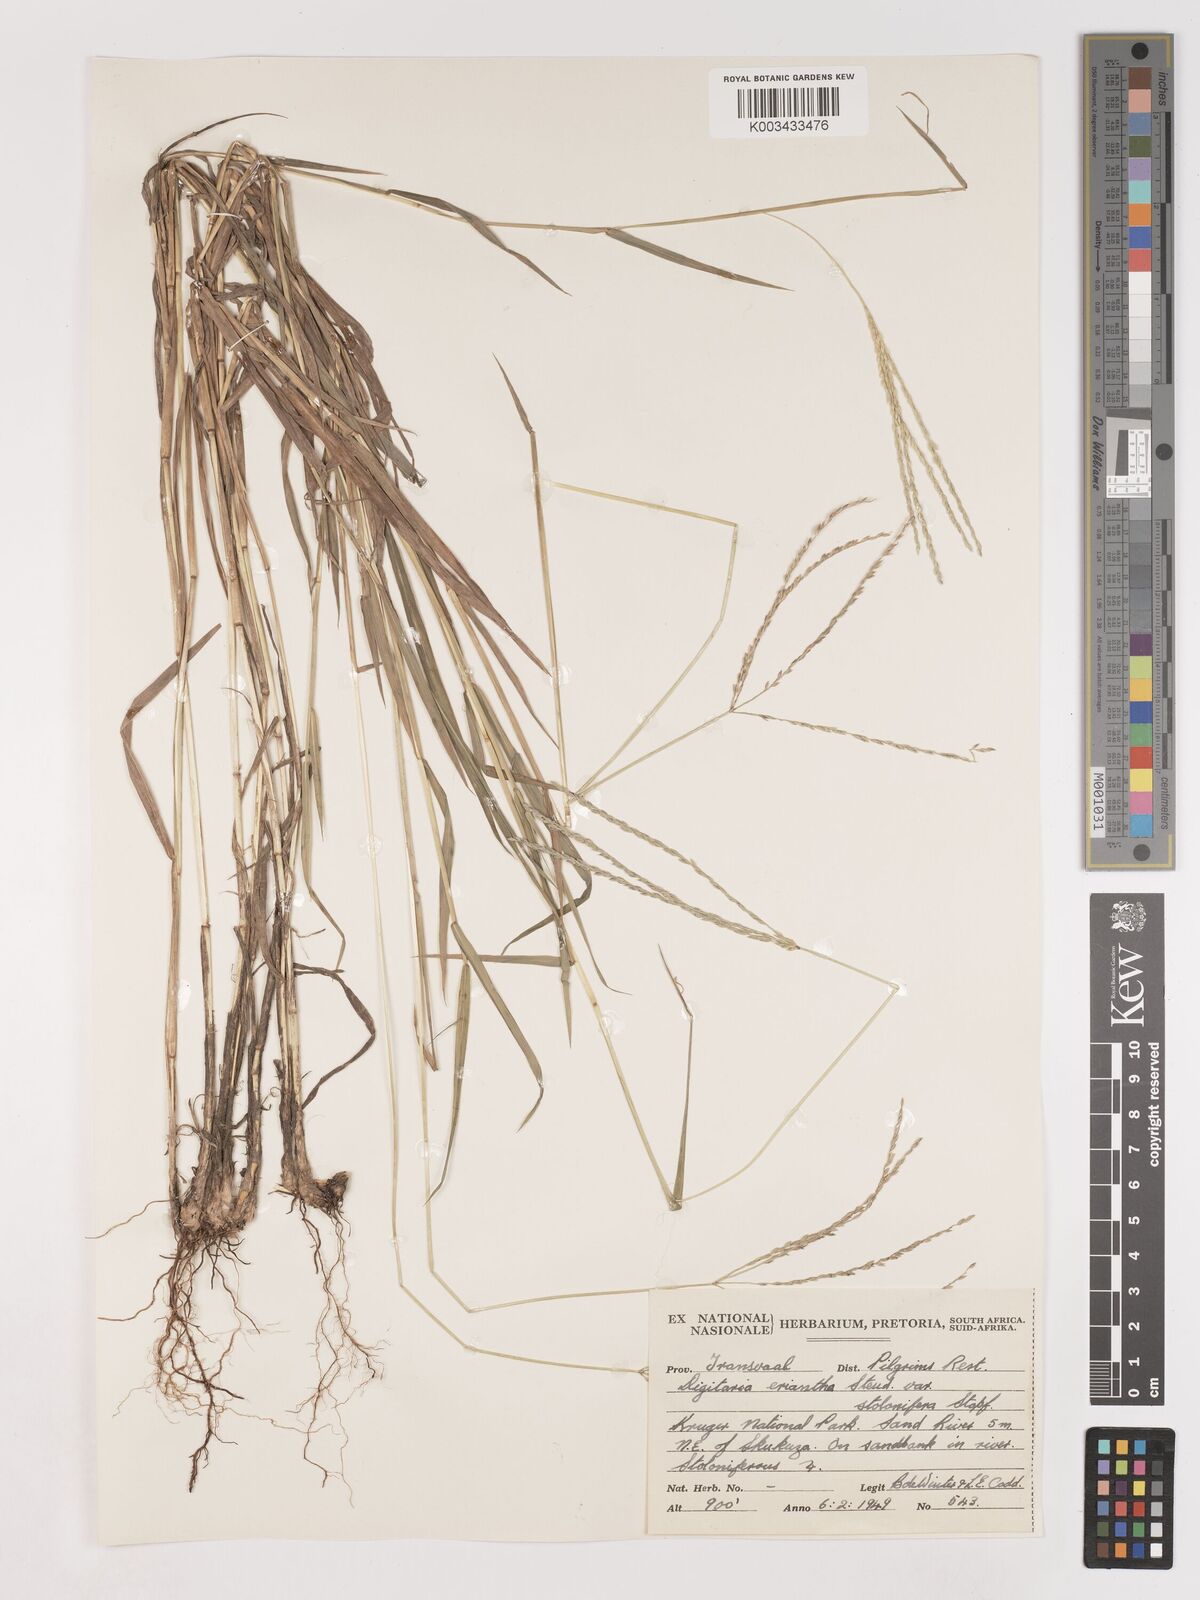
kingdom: Plantae
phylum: Tracheophyta
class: Liliopsida
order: Poales
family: Poaceae
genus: Digitaria
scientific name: Digitaria eriantha
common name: Digitgrass
